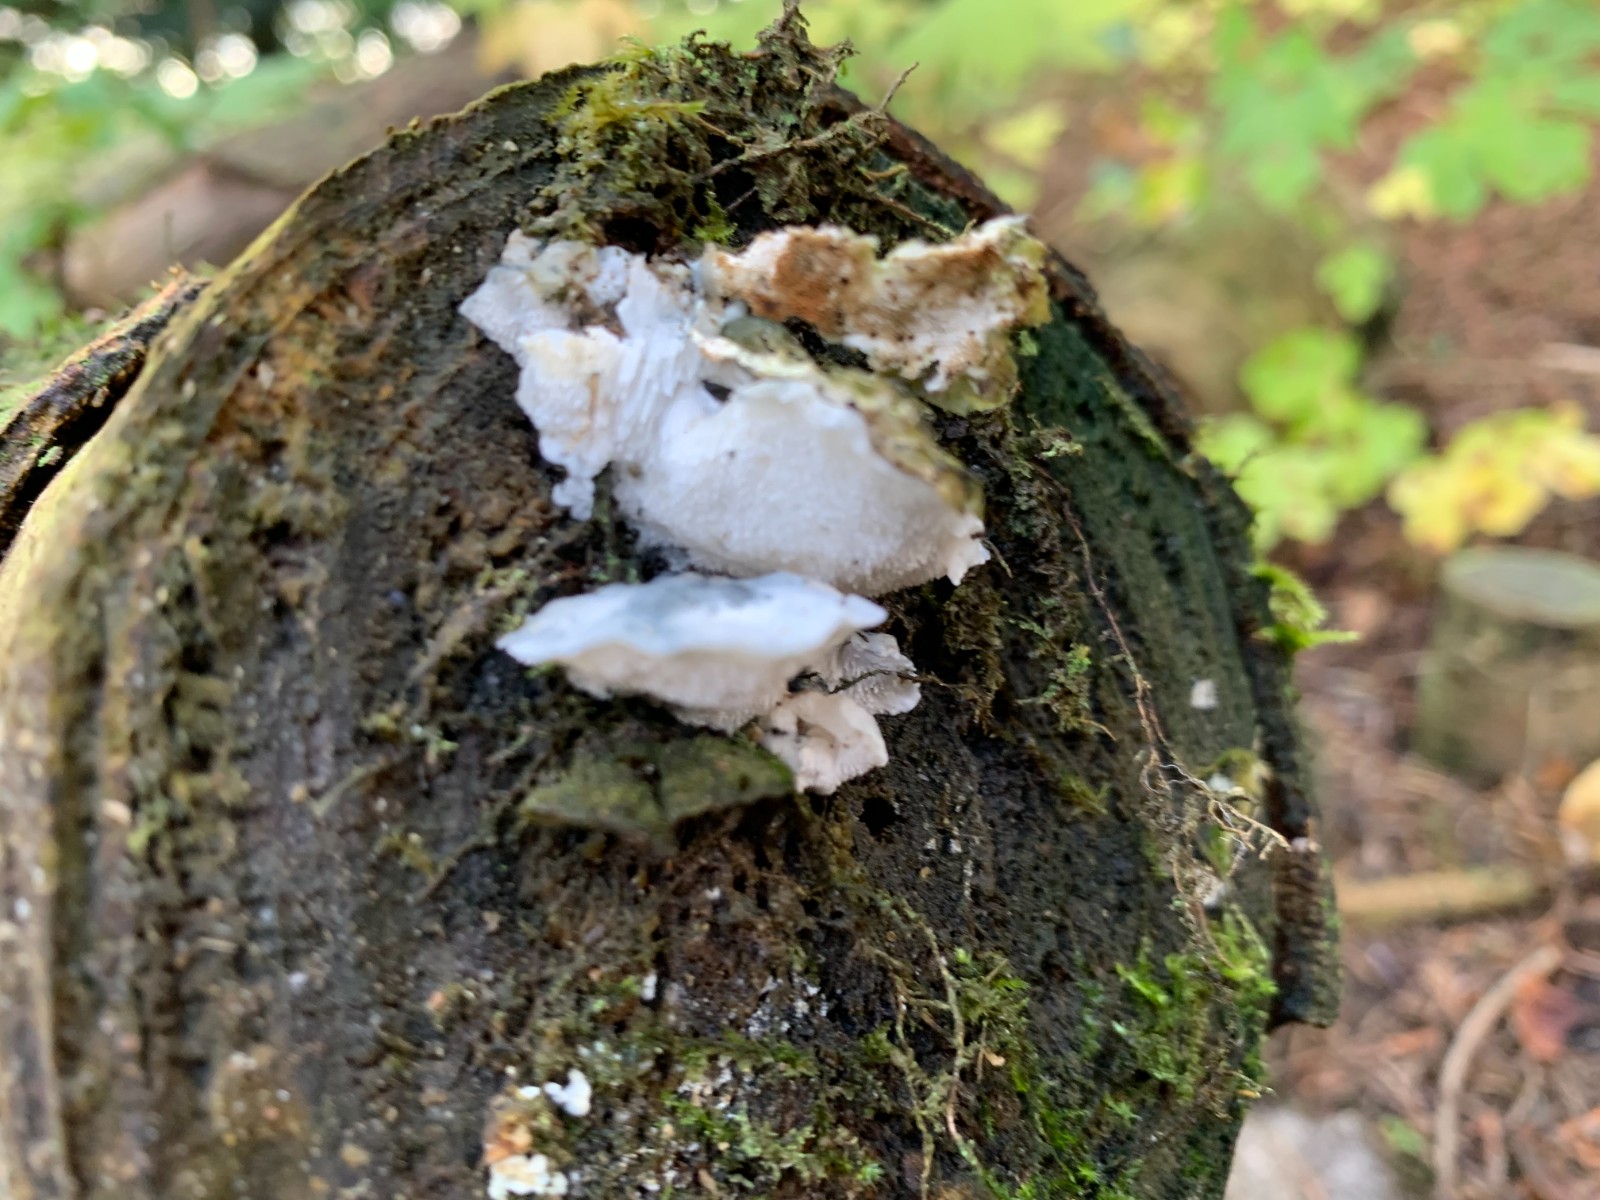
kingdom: Fungi
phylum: Basidiomycota
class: Agaricomycetes
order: Polyporales
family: Polyporaceae
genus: Cyanosporus
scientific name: Cyanosporus caesius
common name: blålig kødporesvamp
